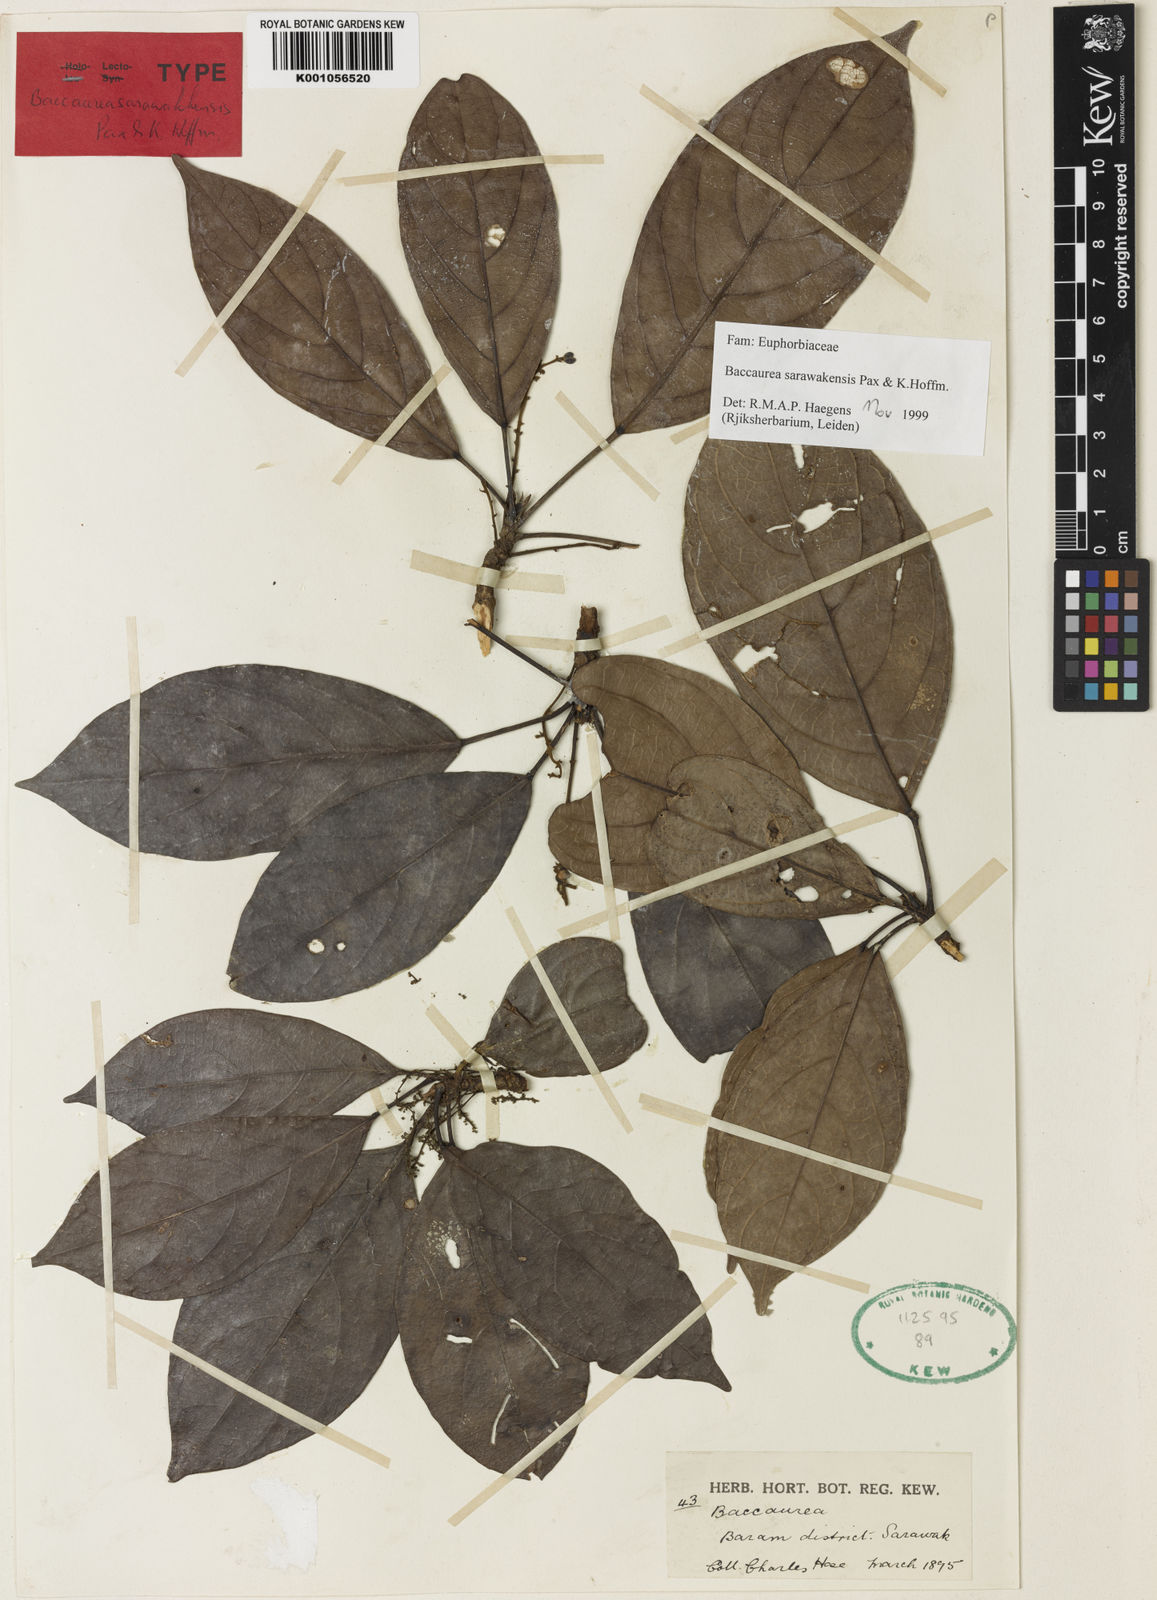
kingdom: Plantae
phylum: Tracheophyta
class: Magnoliopsida
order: Malpighiales
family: Phyllanthaceae
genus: Baccaurea
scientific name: Baccaurea sarawakensis
